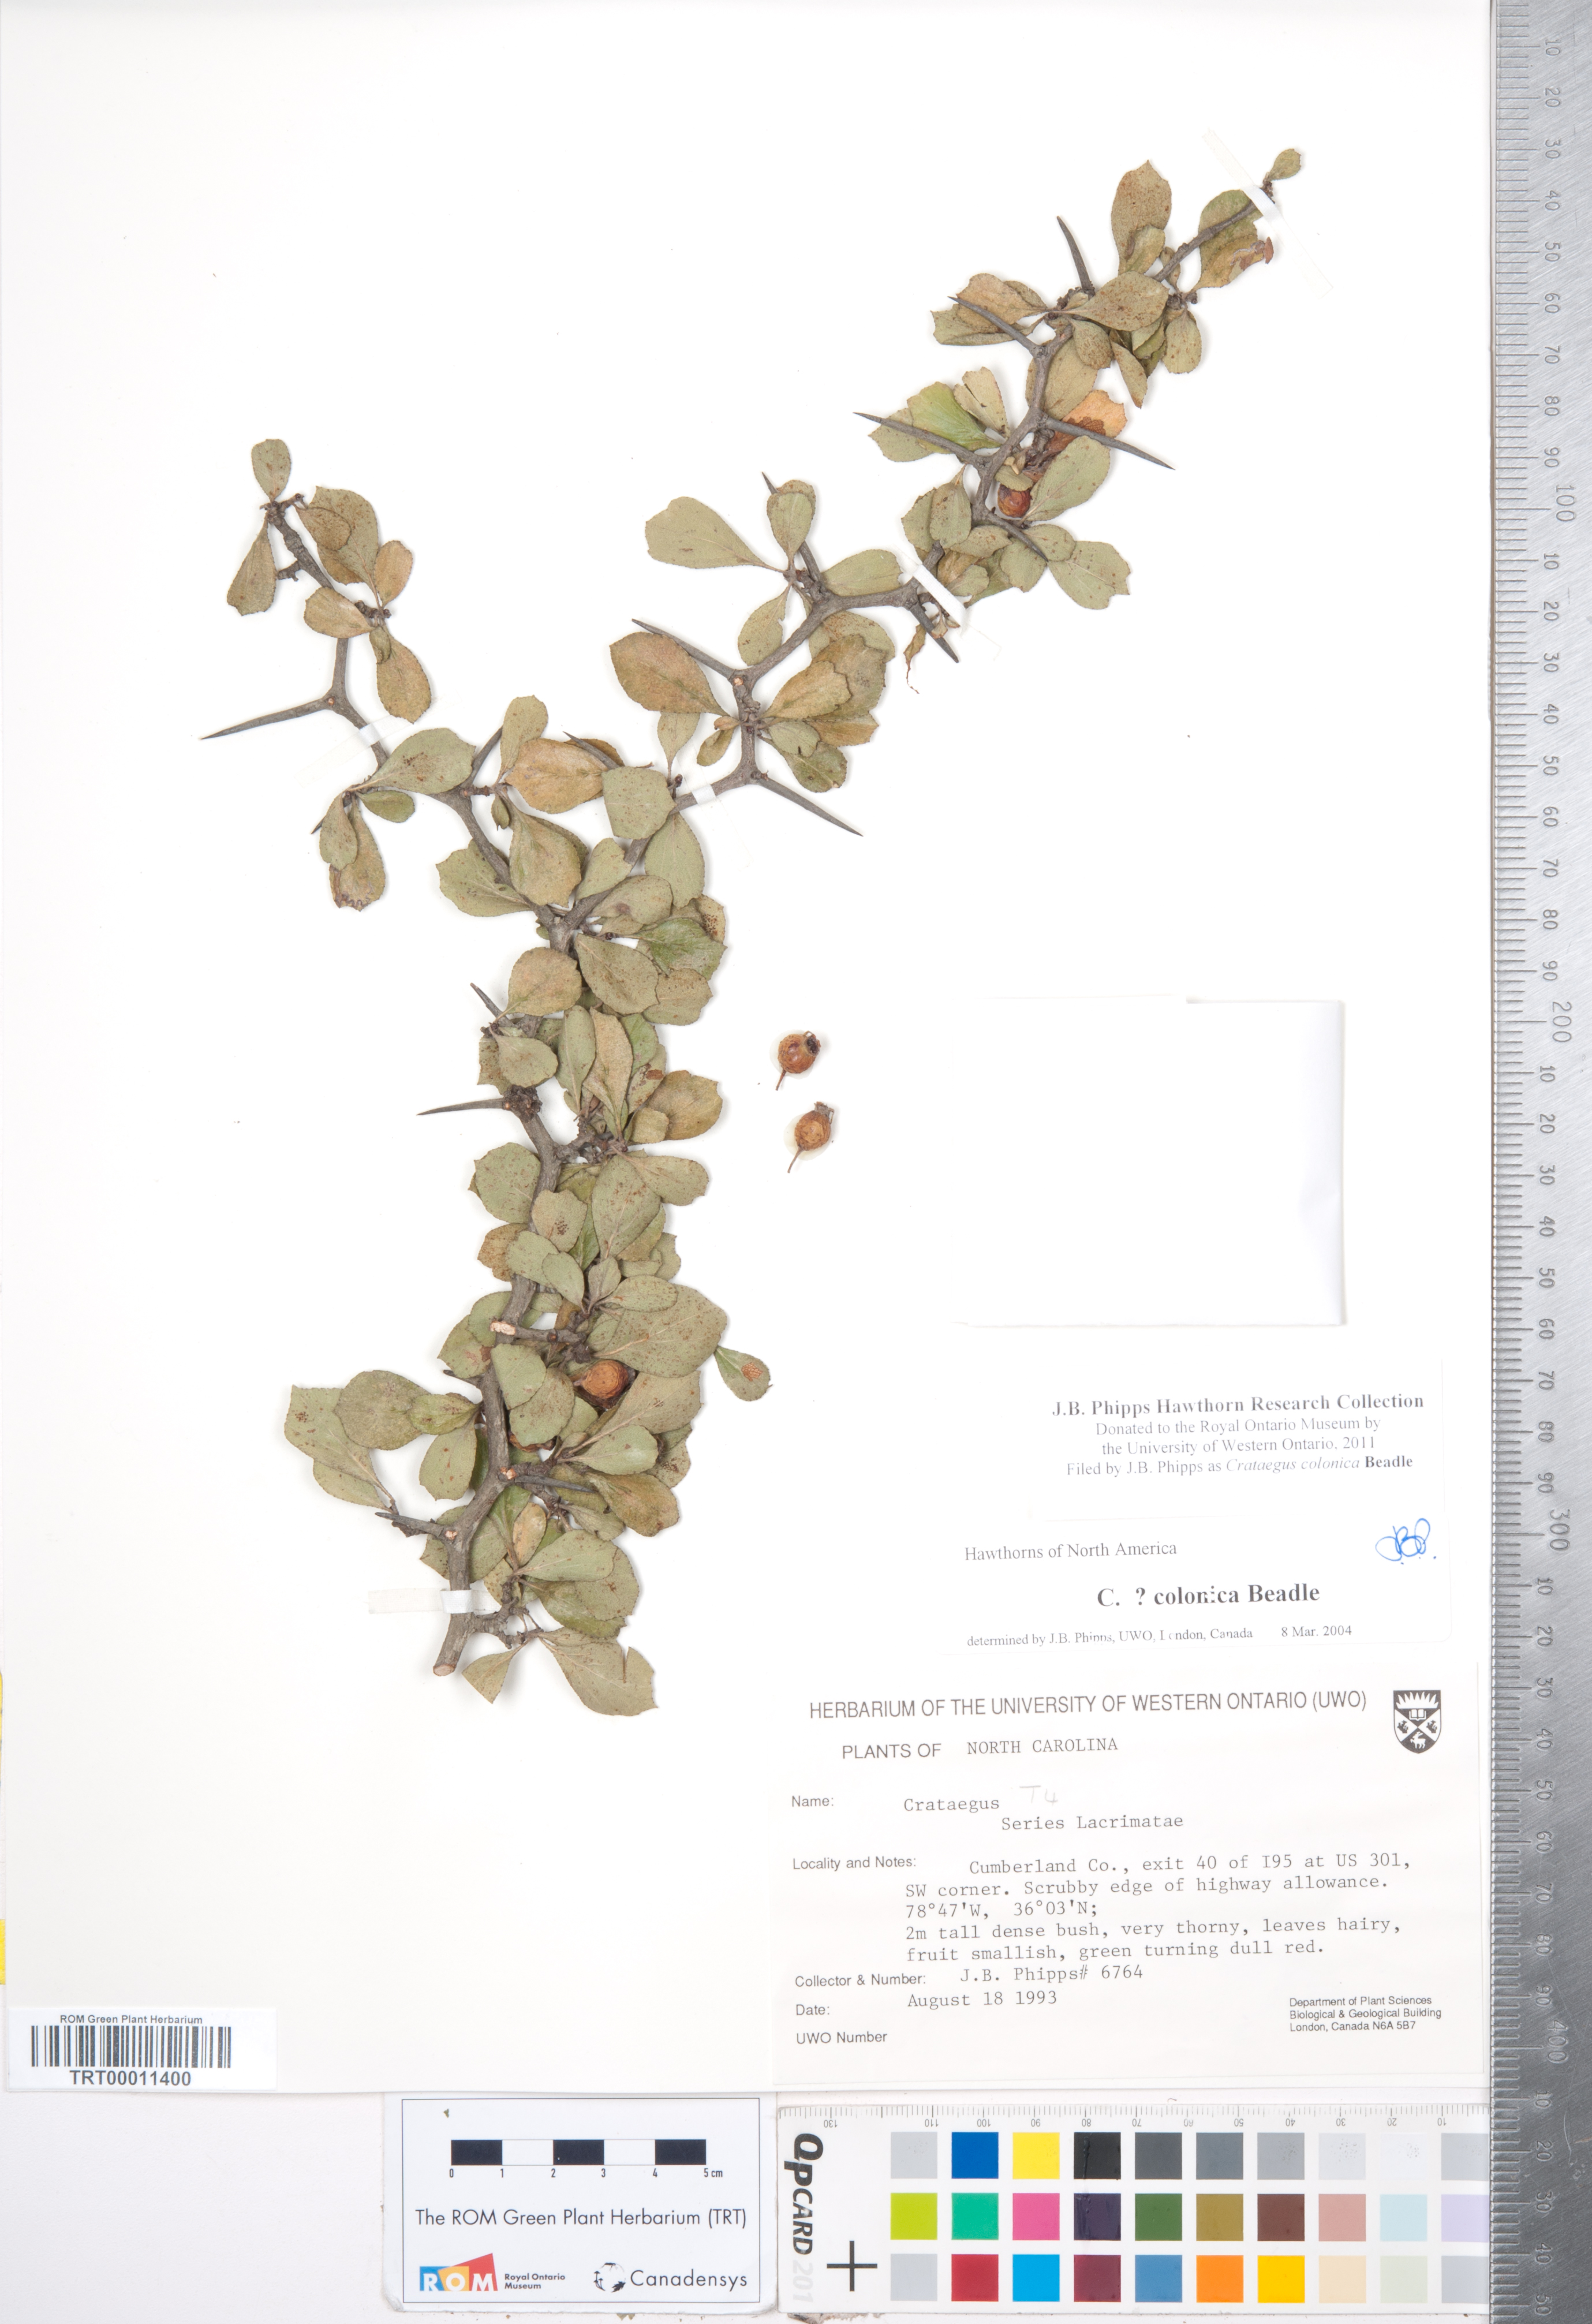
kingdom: Plantae
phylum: Tracheophyta
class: Magnoliopsida
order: Rosales
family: Rosaceae
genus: Crataegus
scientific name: Crataegus
